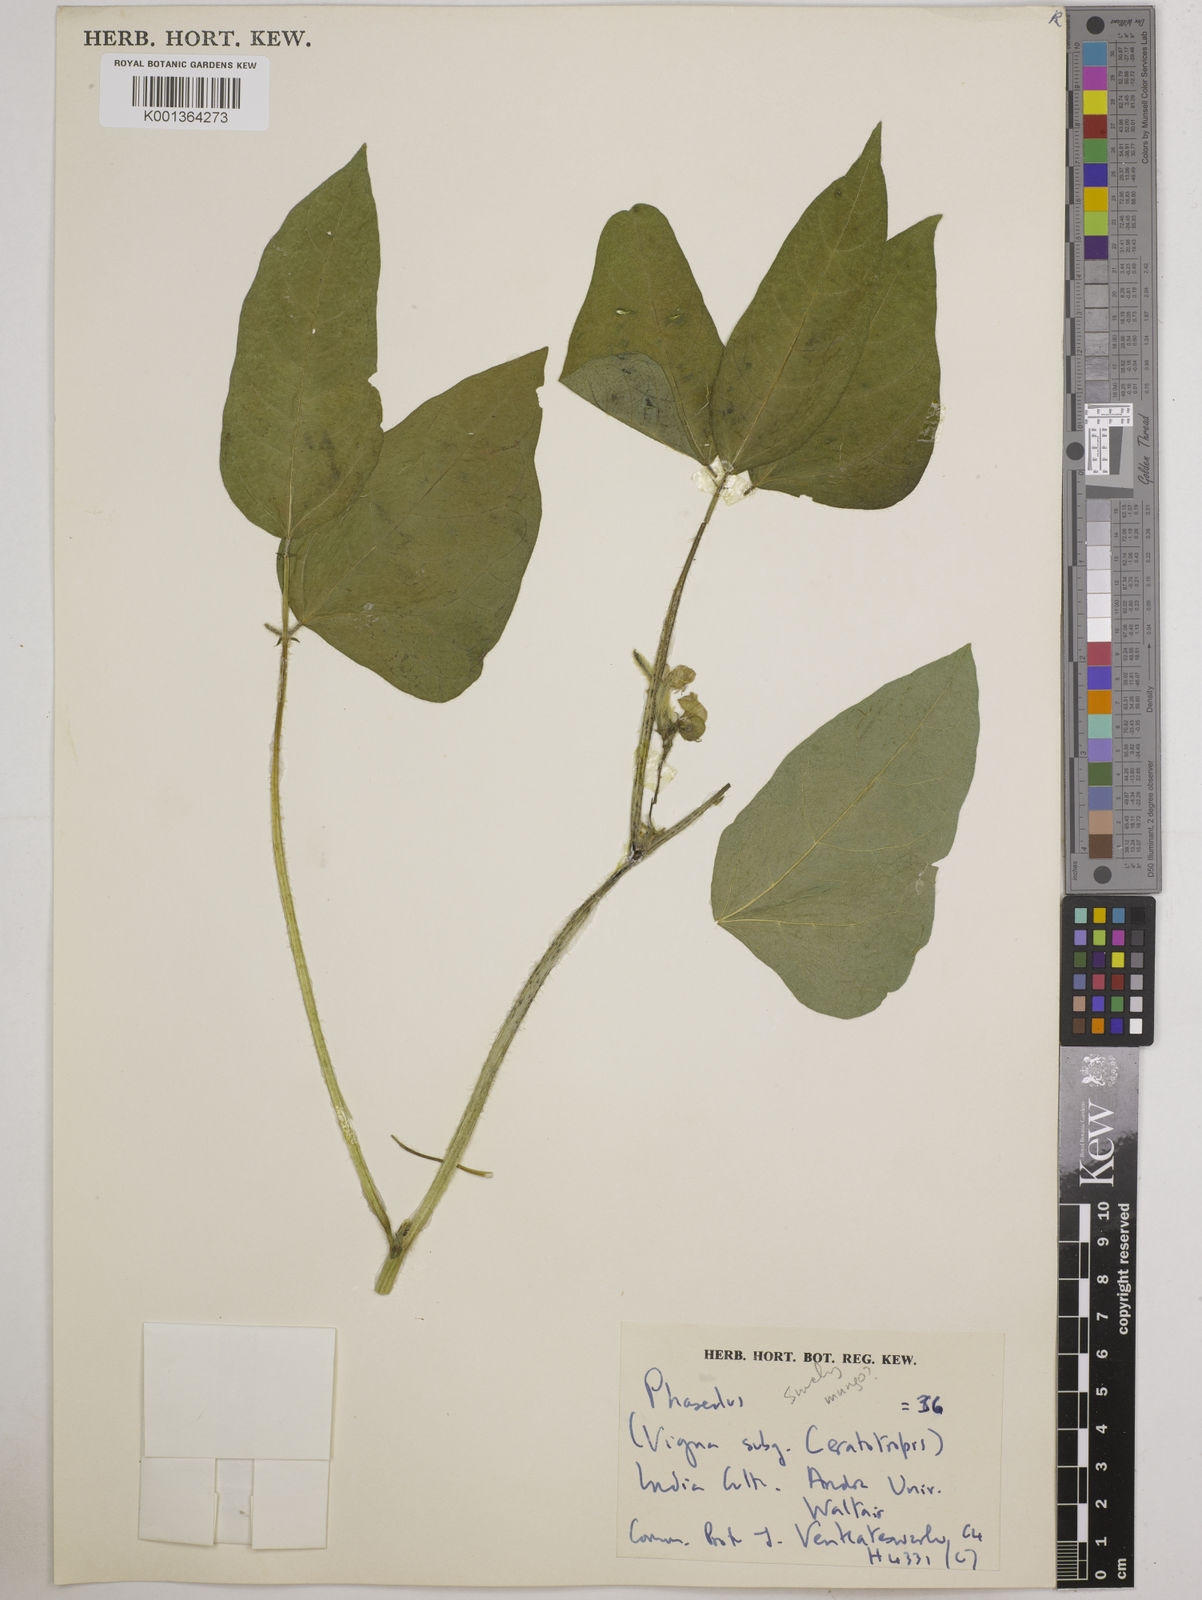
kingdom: Plantae
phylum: Tracheophyta
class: Magnoliopsida
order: Fabales
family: Fabaceae
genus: Vigna
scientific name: Vigna
